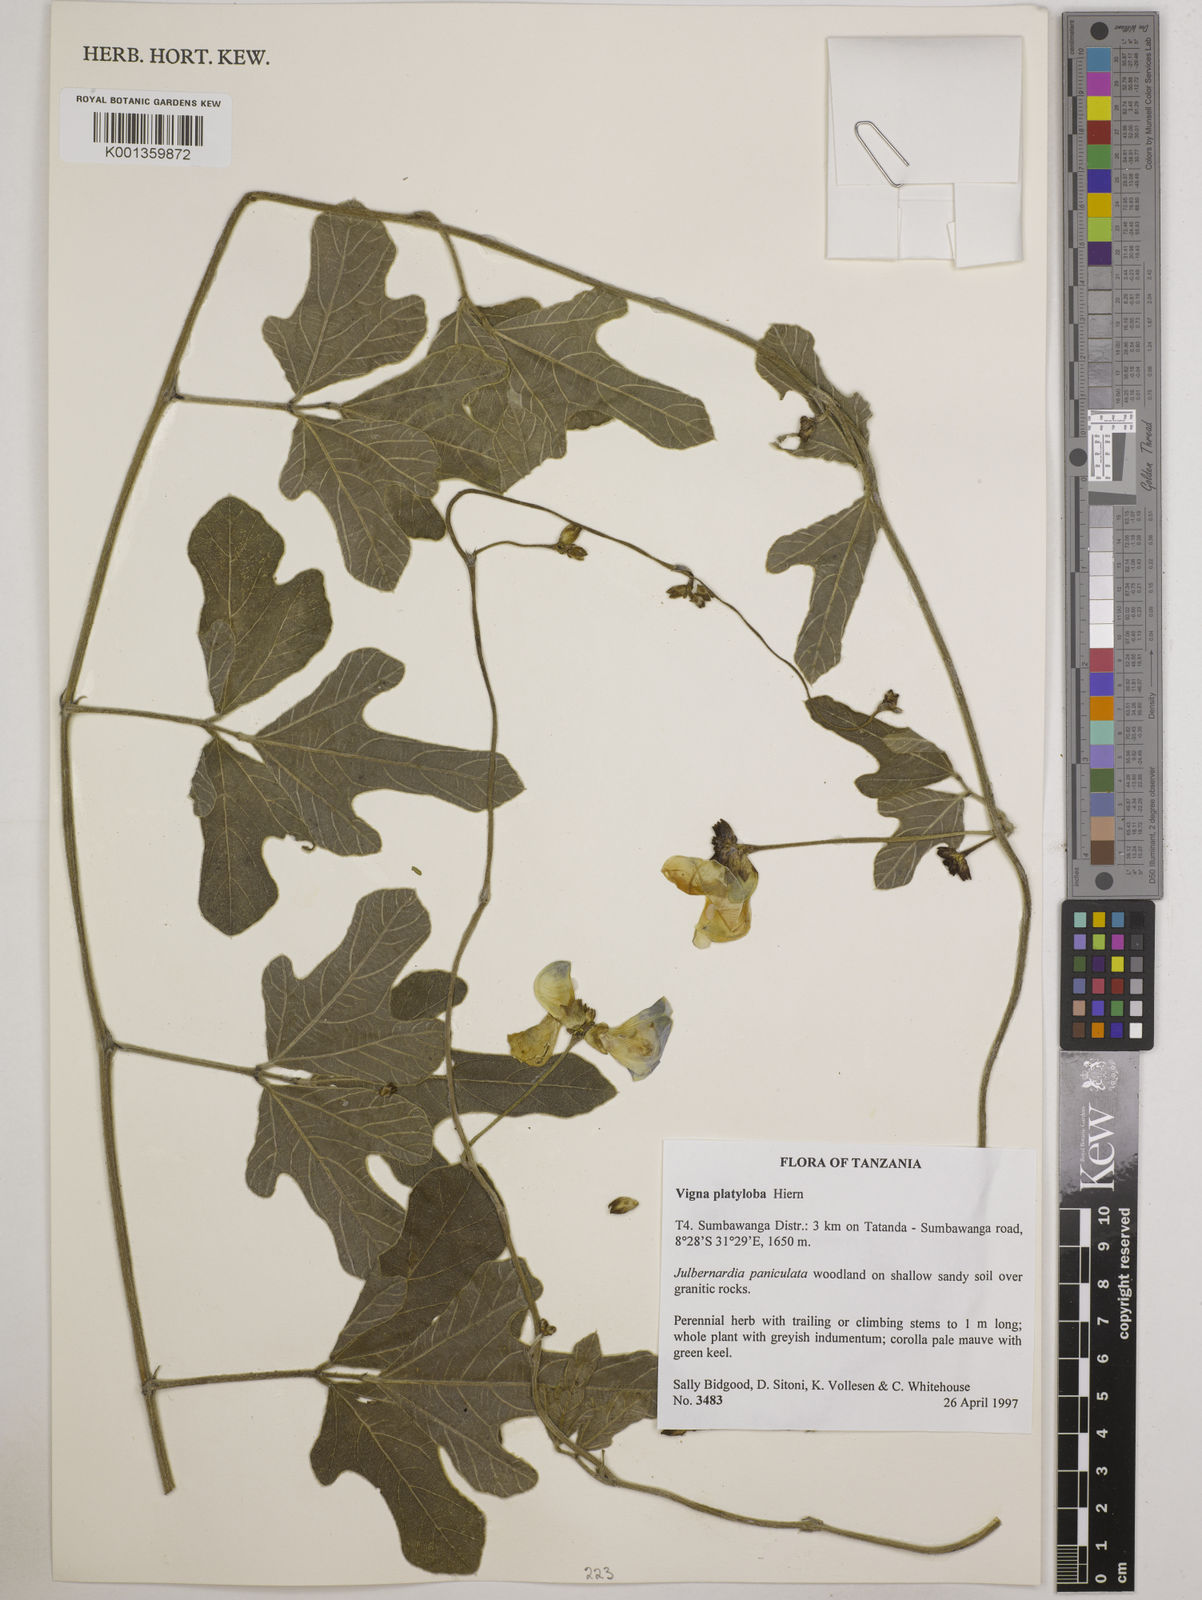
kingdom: Plantae
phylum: Tracheophyta
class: Magnoliopsida
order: Fabales
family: Fabaceae
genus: Vigna
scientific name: Vigna platyloba
